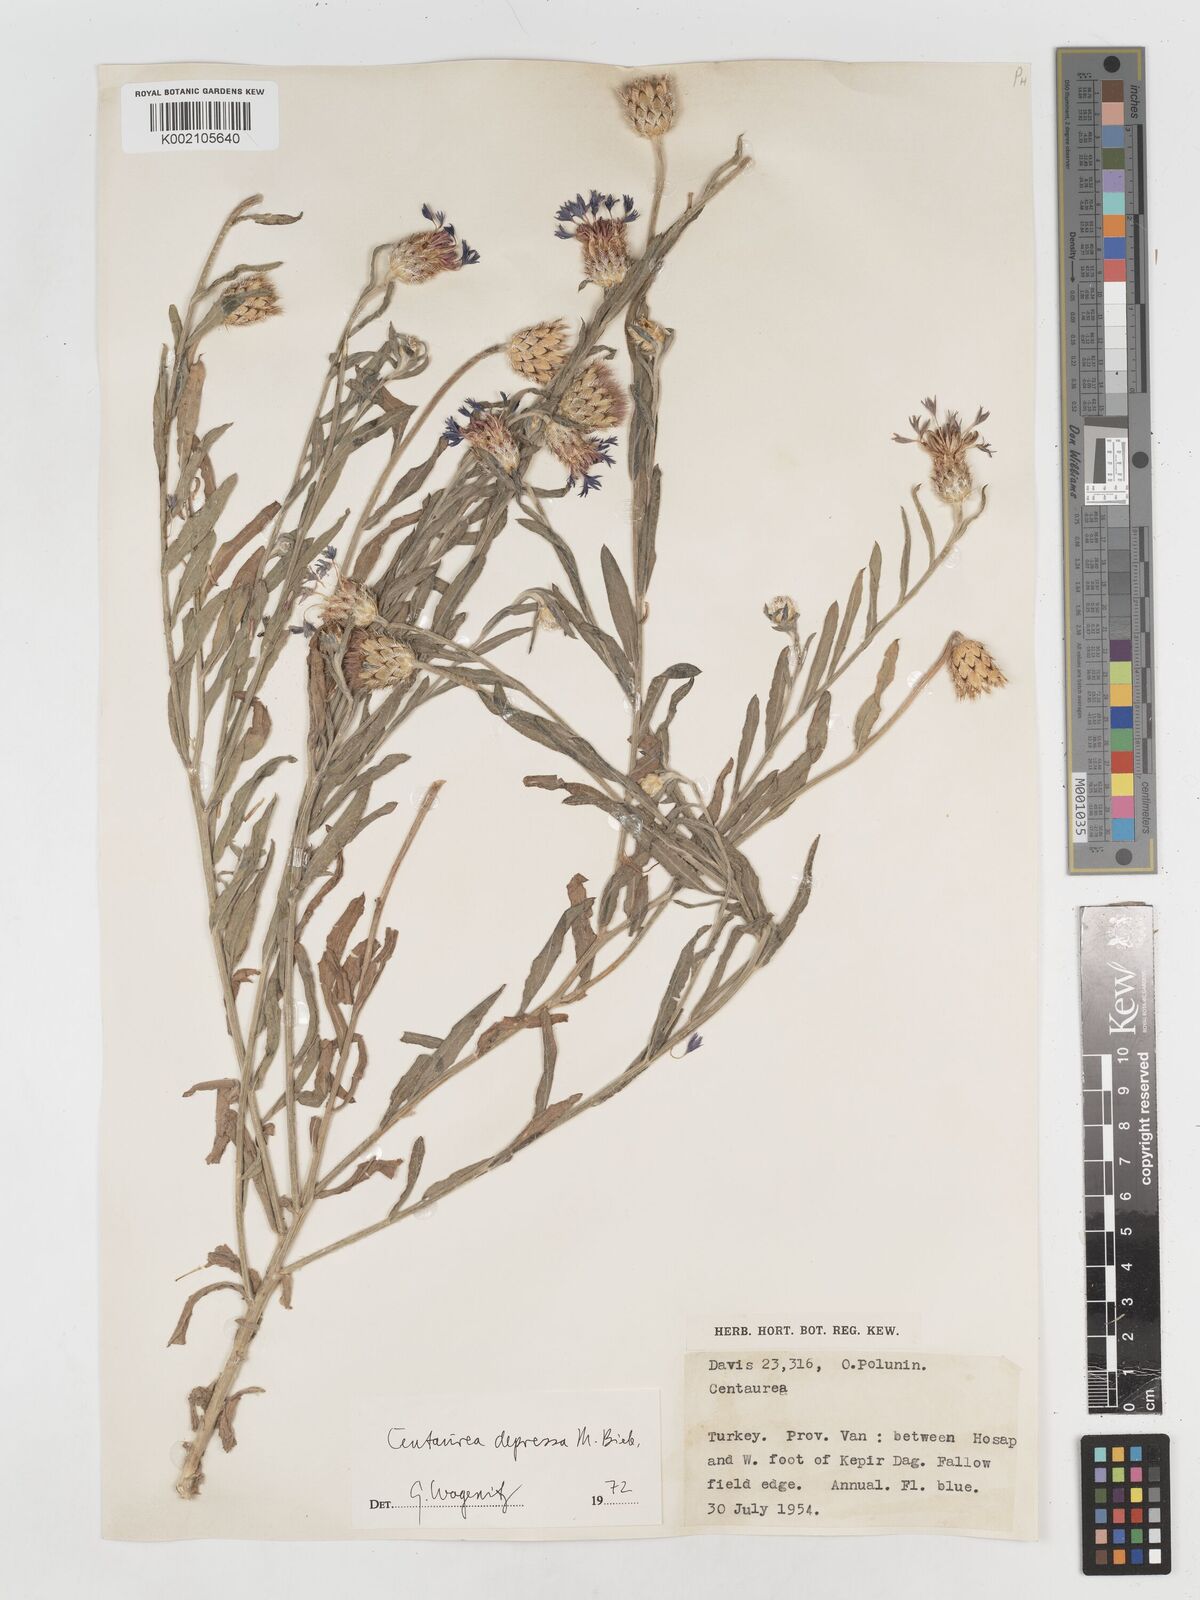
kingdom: Plantae
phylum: Tracheophyta
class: Magnoliopsida
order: Asterales
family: Asteraceae
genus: Centaurea
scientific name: Centaurea depressa
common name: Iranian knapweed
